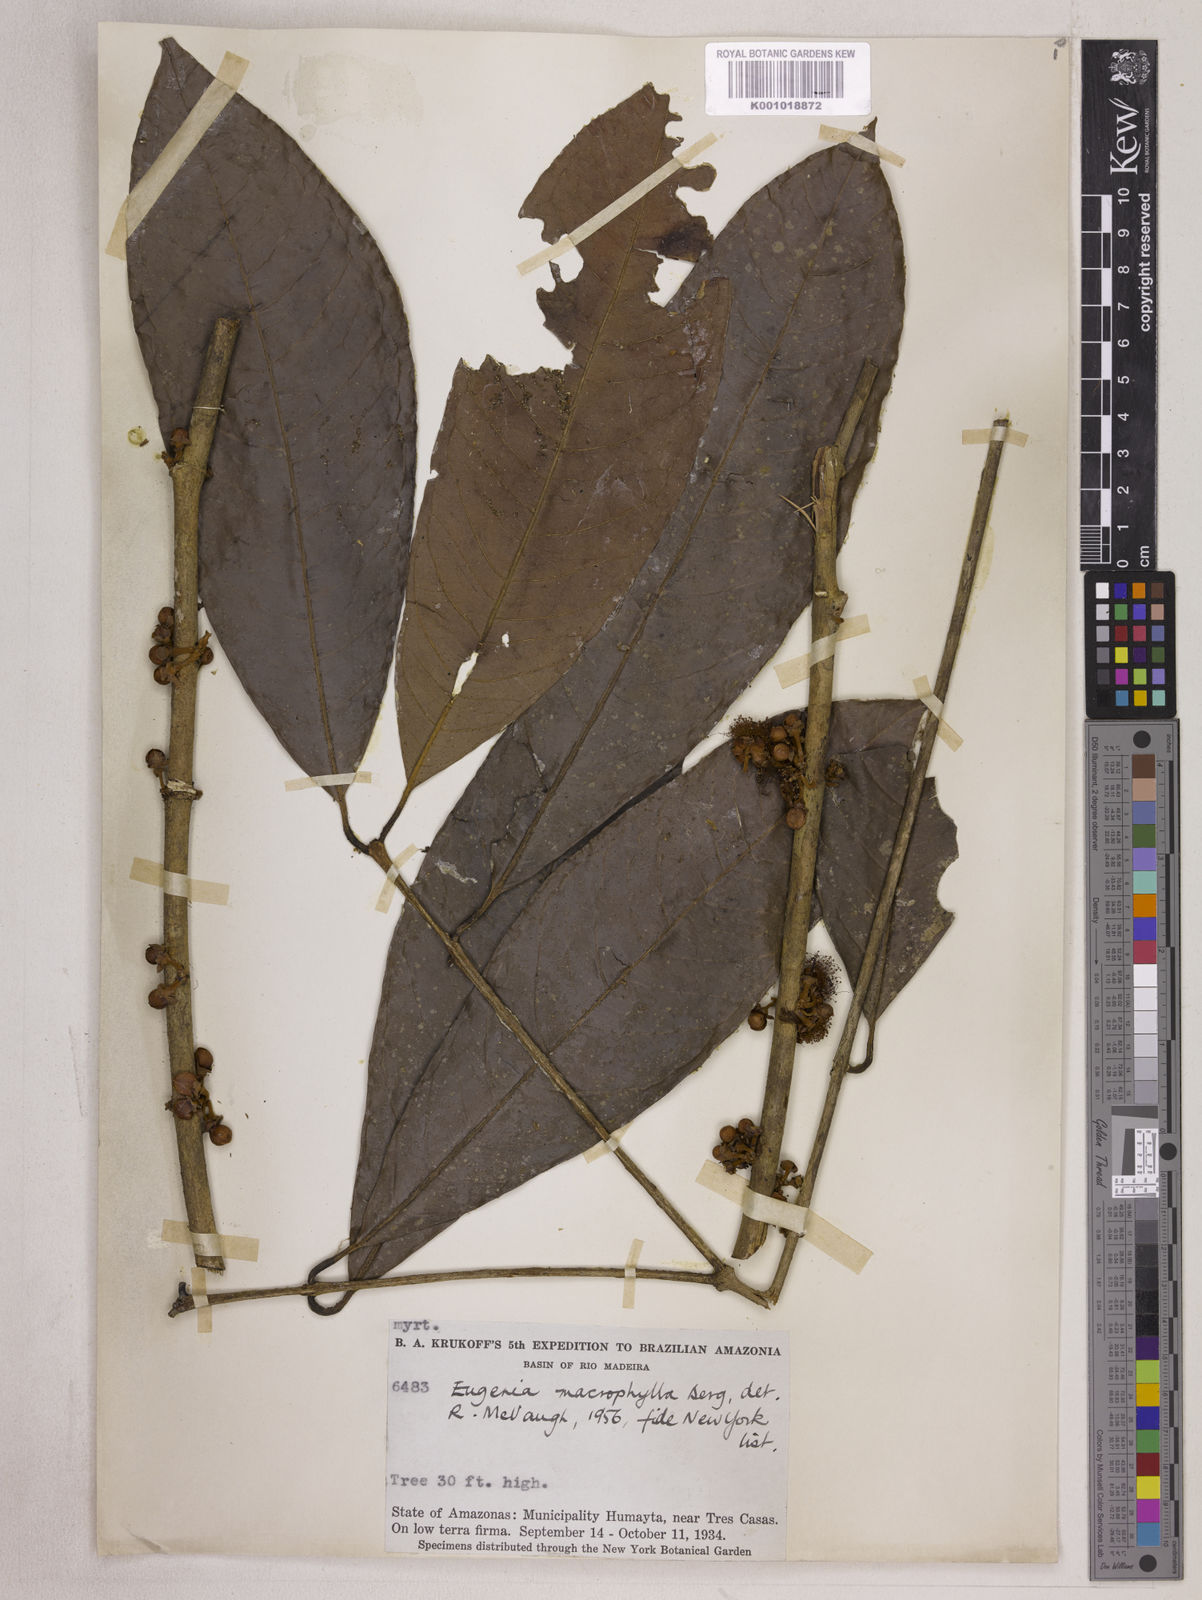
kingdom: Plantae
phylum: Tracheophyta
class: Magnoliopsida
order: Myrtales
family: Myrtaceae
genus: Eugenia
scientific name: Eugenia glomeruliflora
